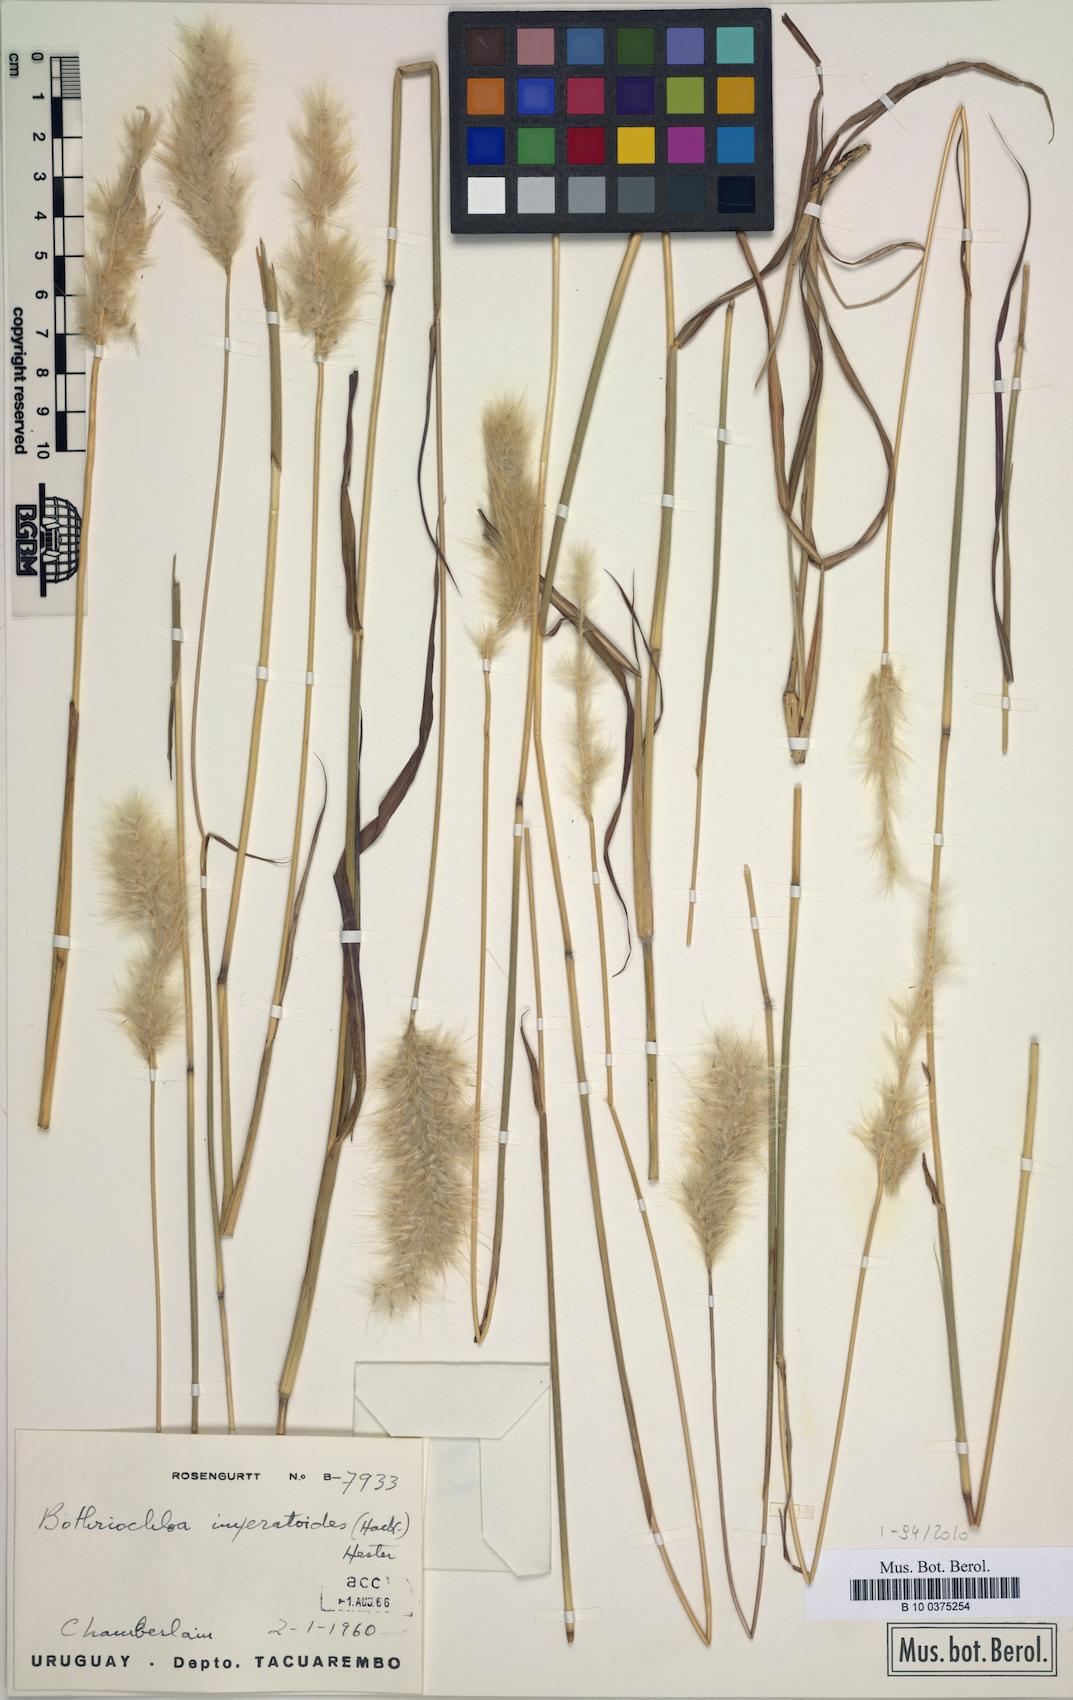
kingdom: Plantae
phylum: Tracheophyta
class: Liliopsida
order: Poales
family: Poaceae
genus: Bothriochloa
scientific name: Bothriochloa imperatoides
